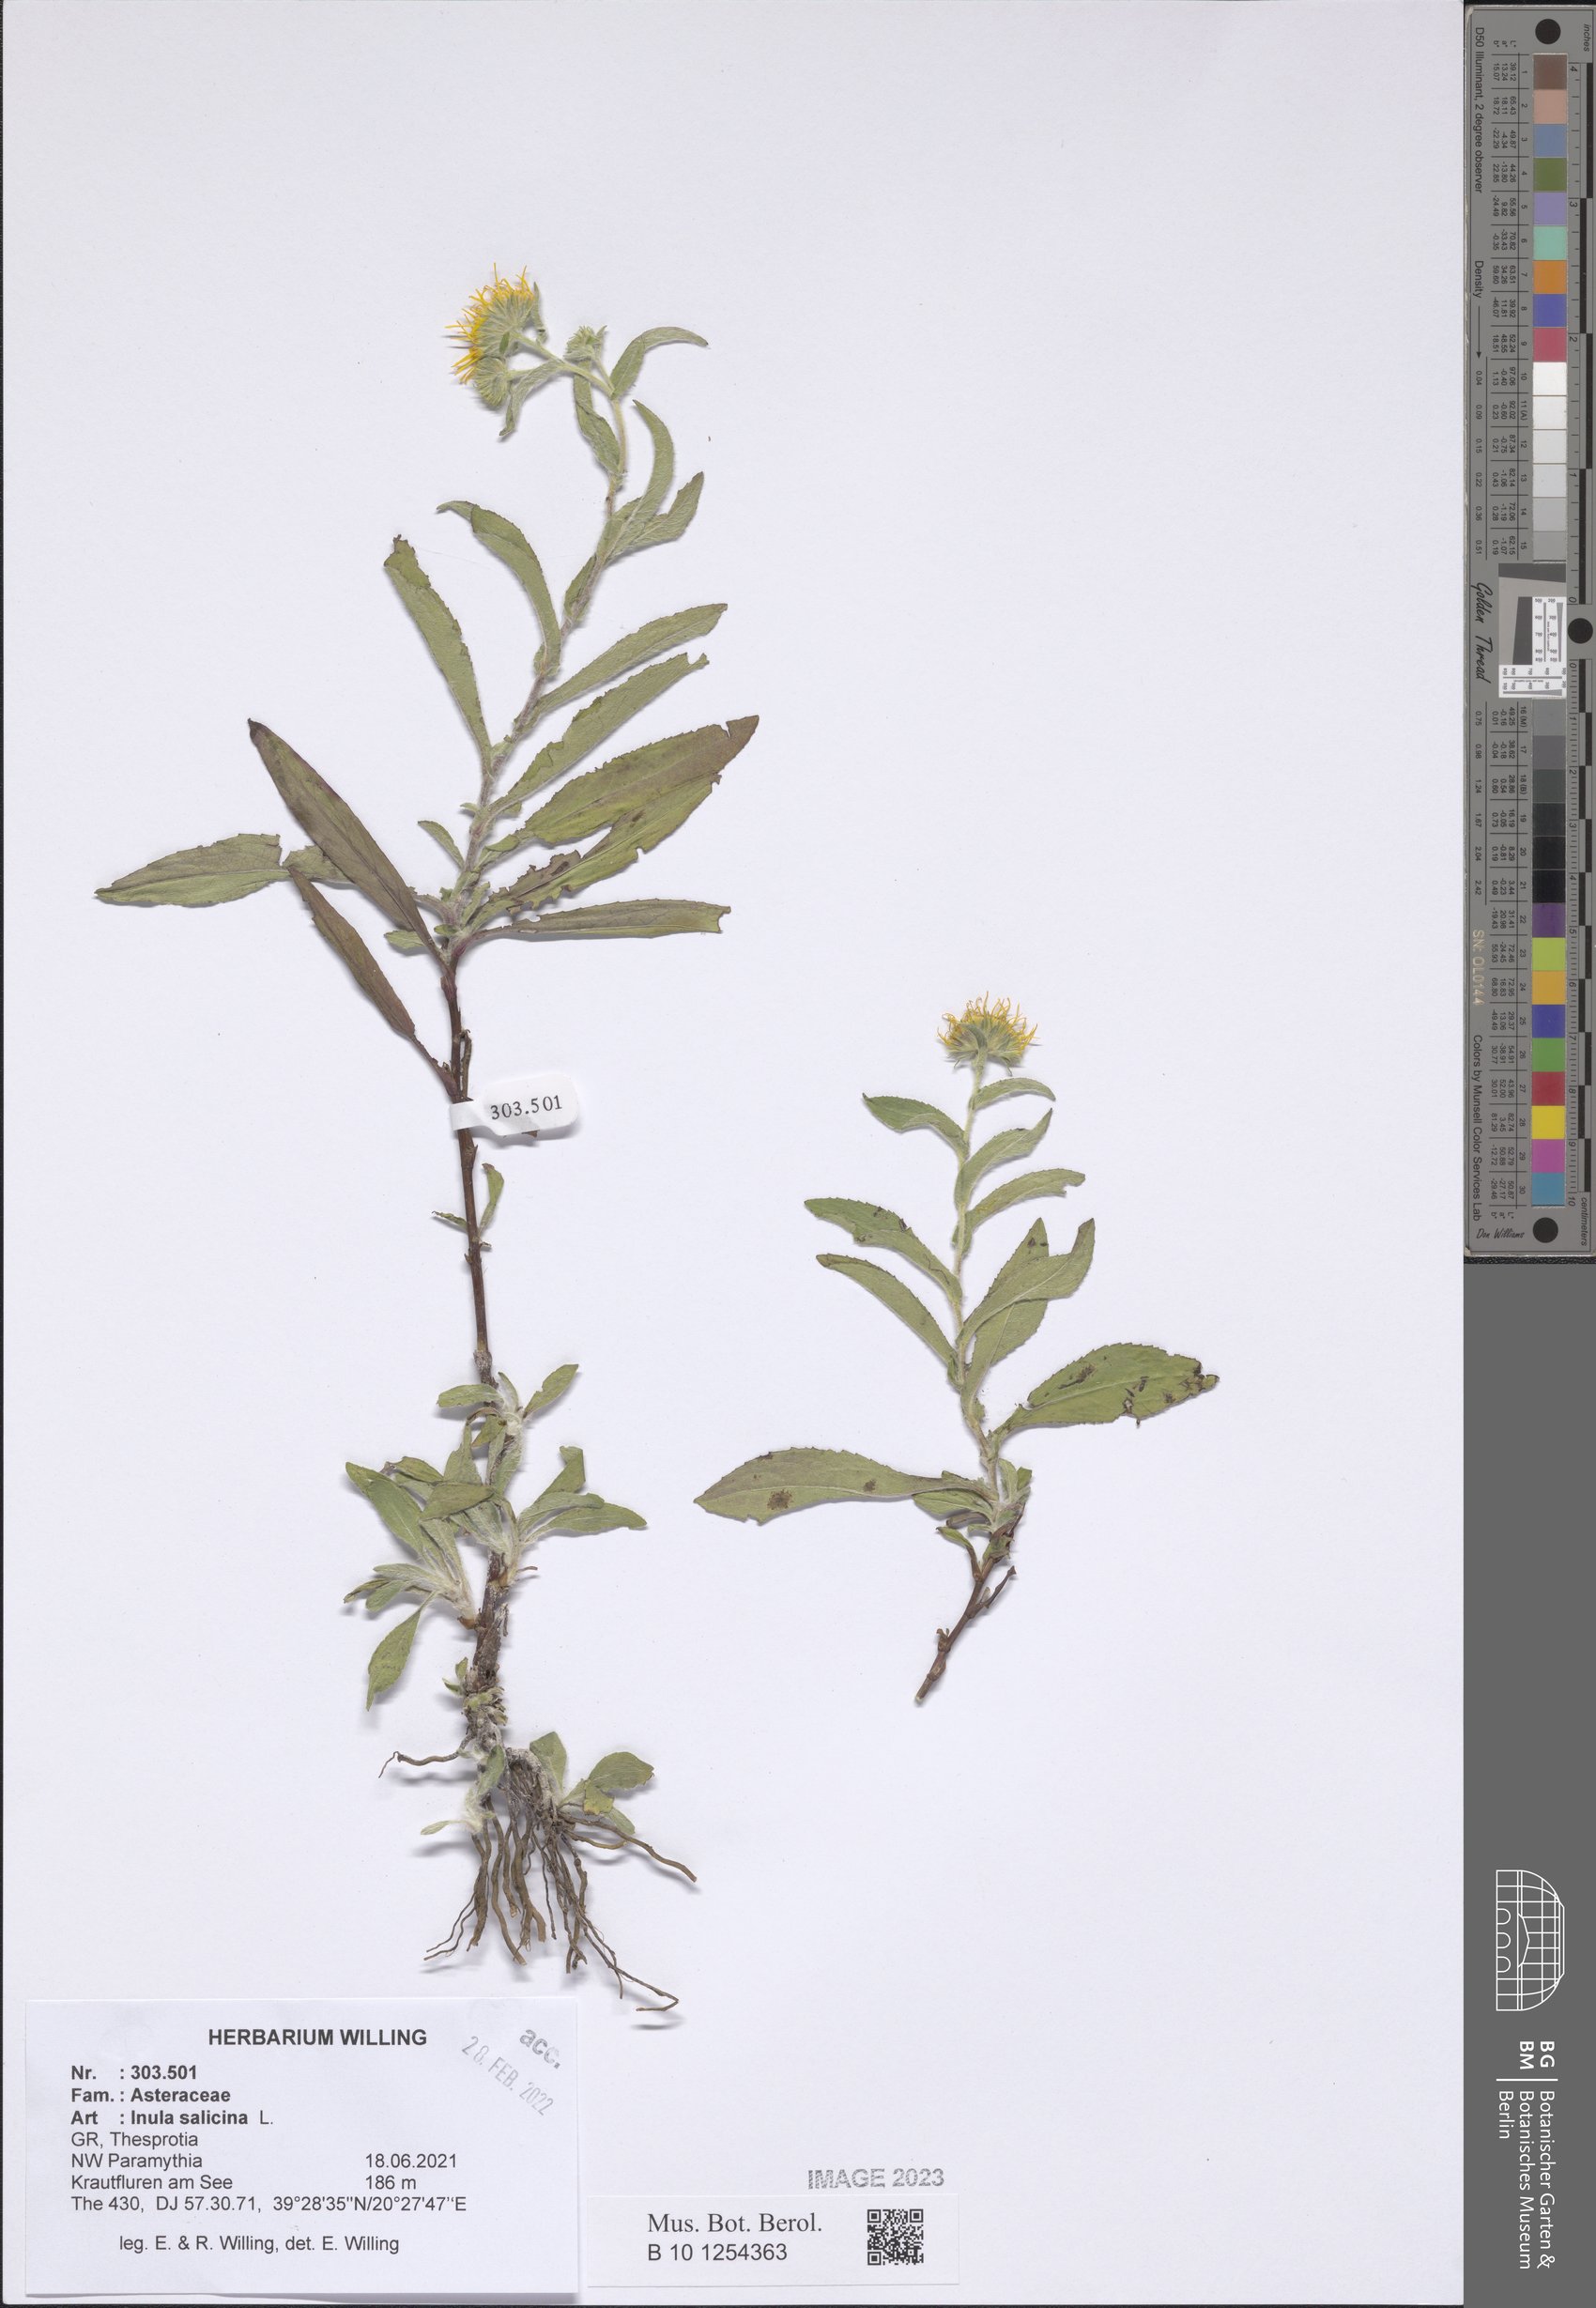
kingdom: Plantae
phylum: Tracheophyta
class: Magnoliopsida
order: Asterales
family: Asteraceae
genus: Pentanema
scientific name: Pentanema salicinum
